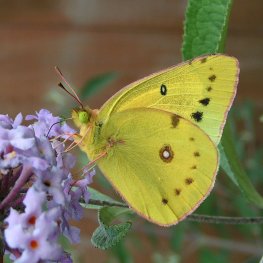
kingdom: Animalia
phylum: Arthropoda
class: Insecta
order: Lepidoptera
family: Pieridae
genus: Colias
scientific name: Colias eurytheme
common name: Orange Sulphur
